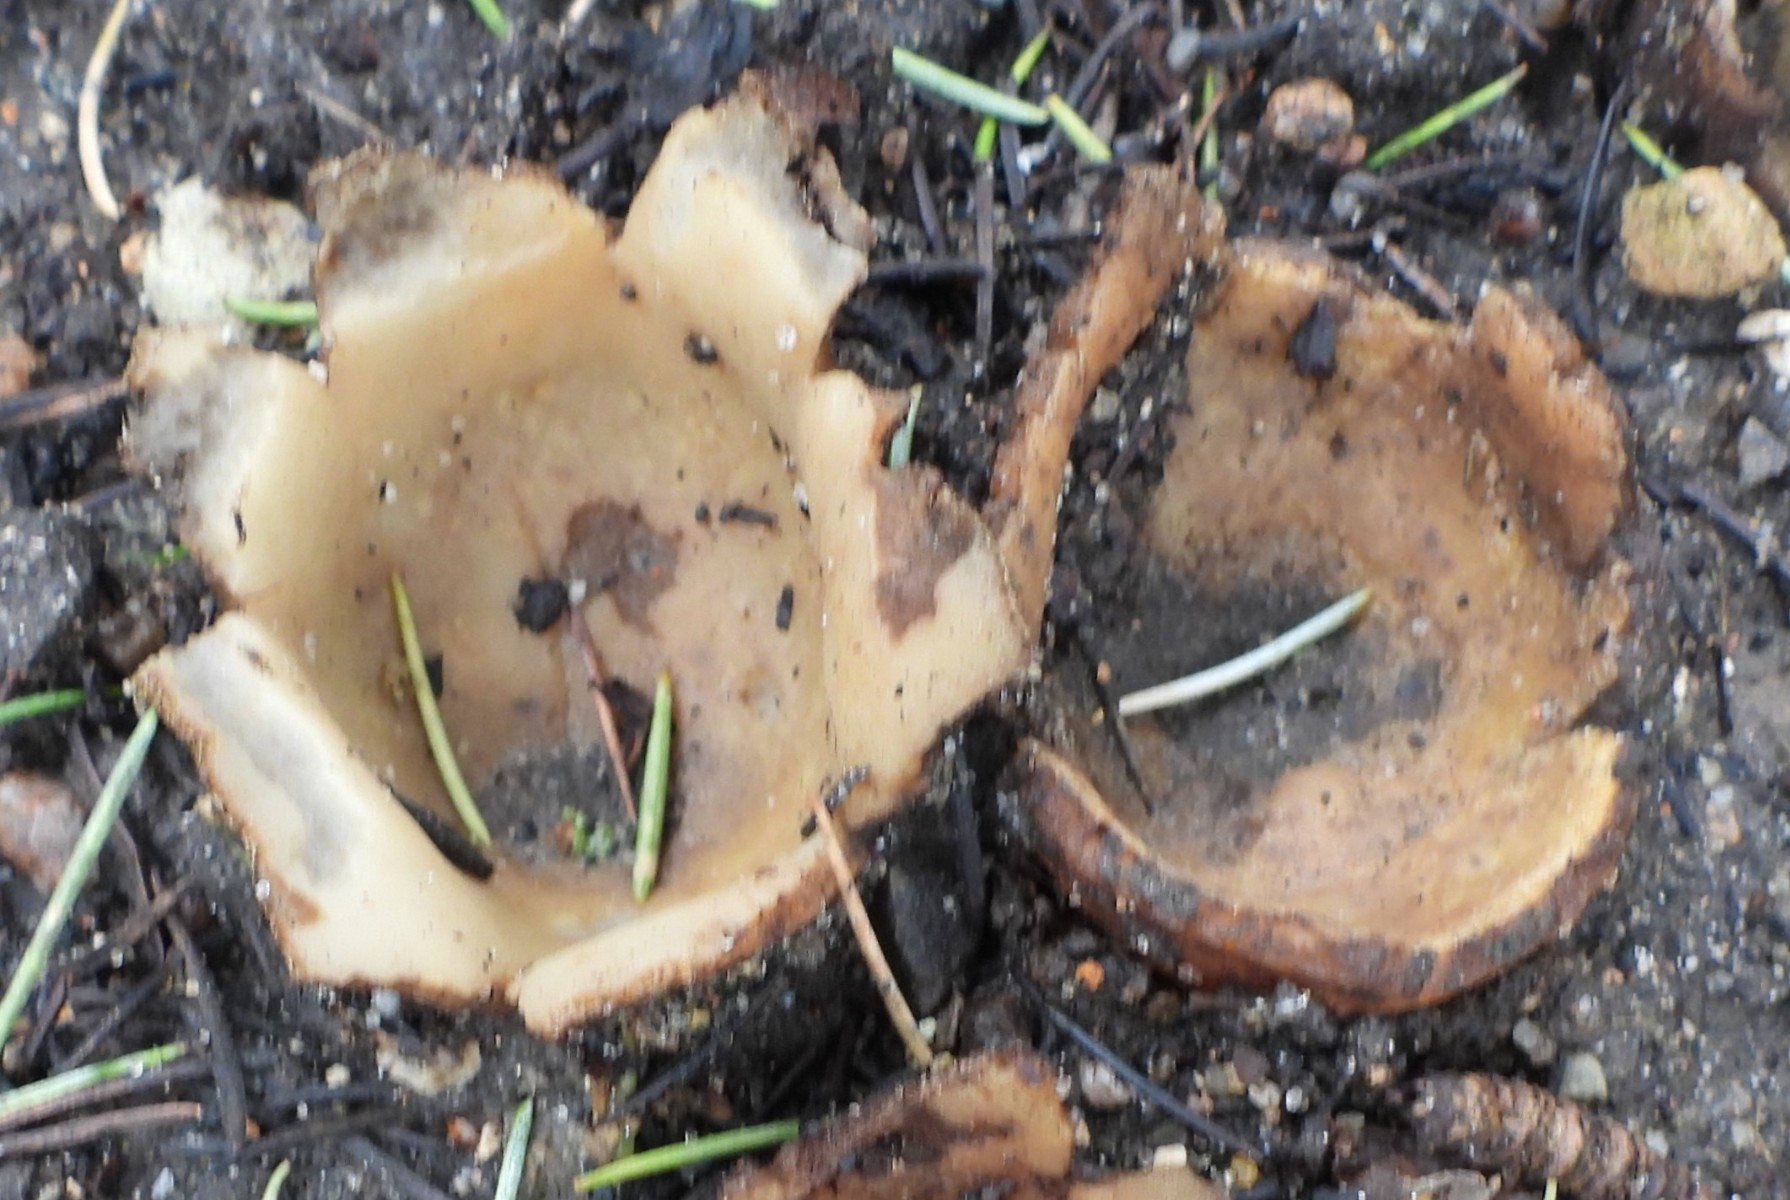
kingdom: Fungi
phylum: Ascomycota
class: Pezizomycetes
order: Pezizales
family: Pyronemataceae
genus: Geopora
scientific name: Geopora sumneriana
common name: vår-jordbæger
